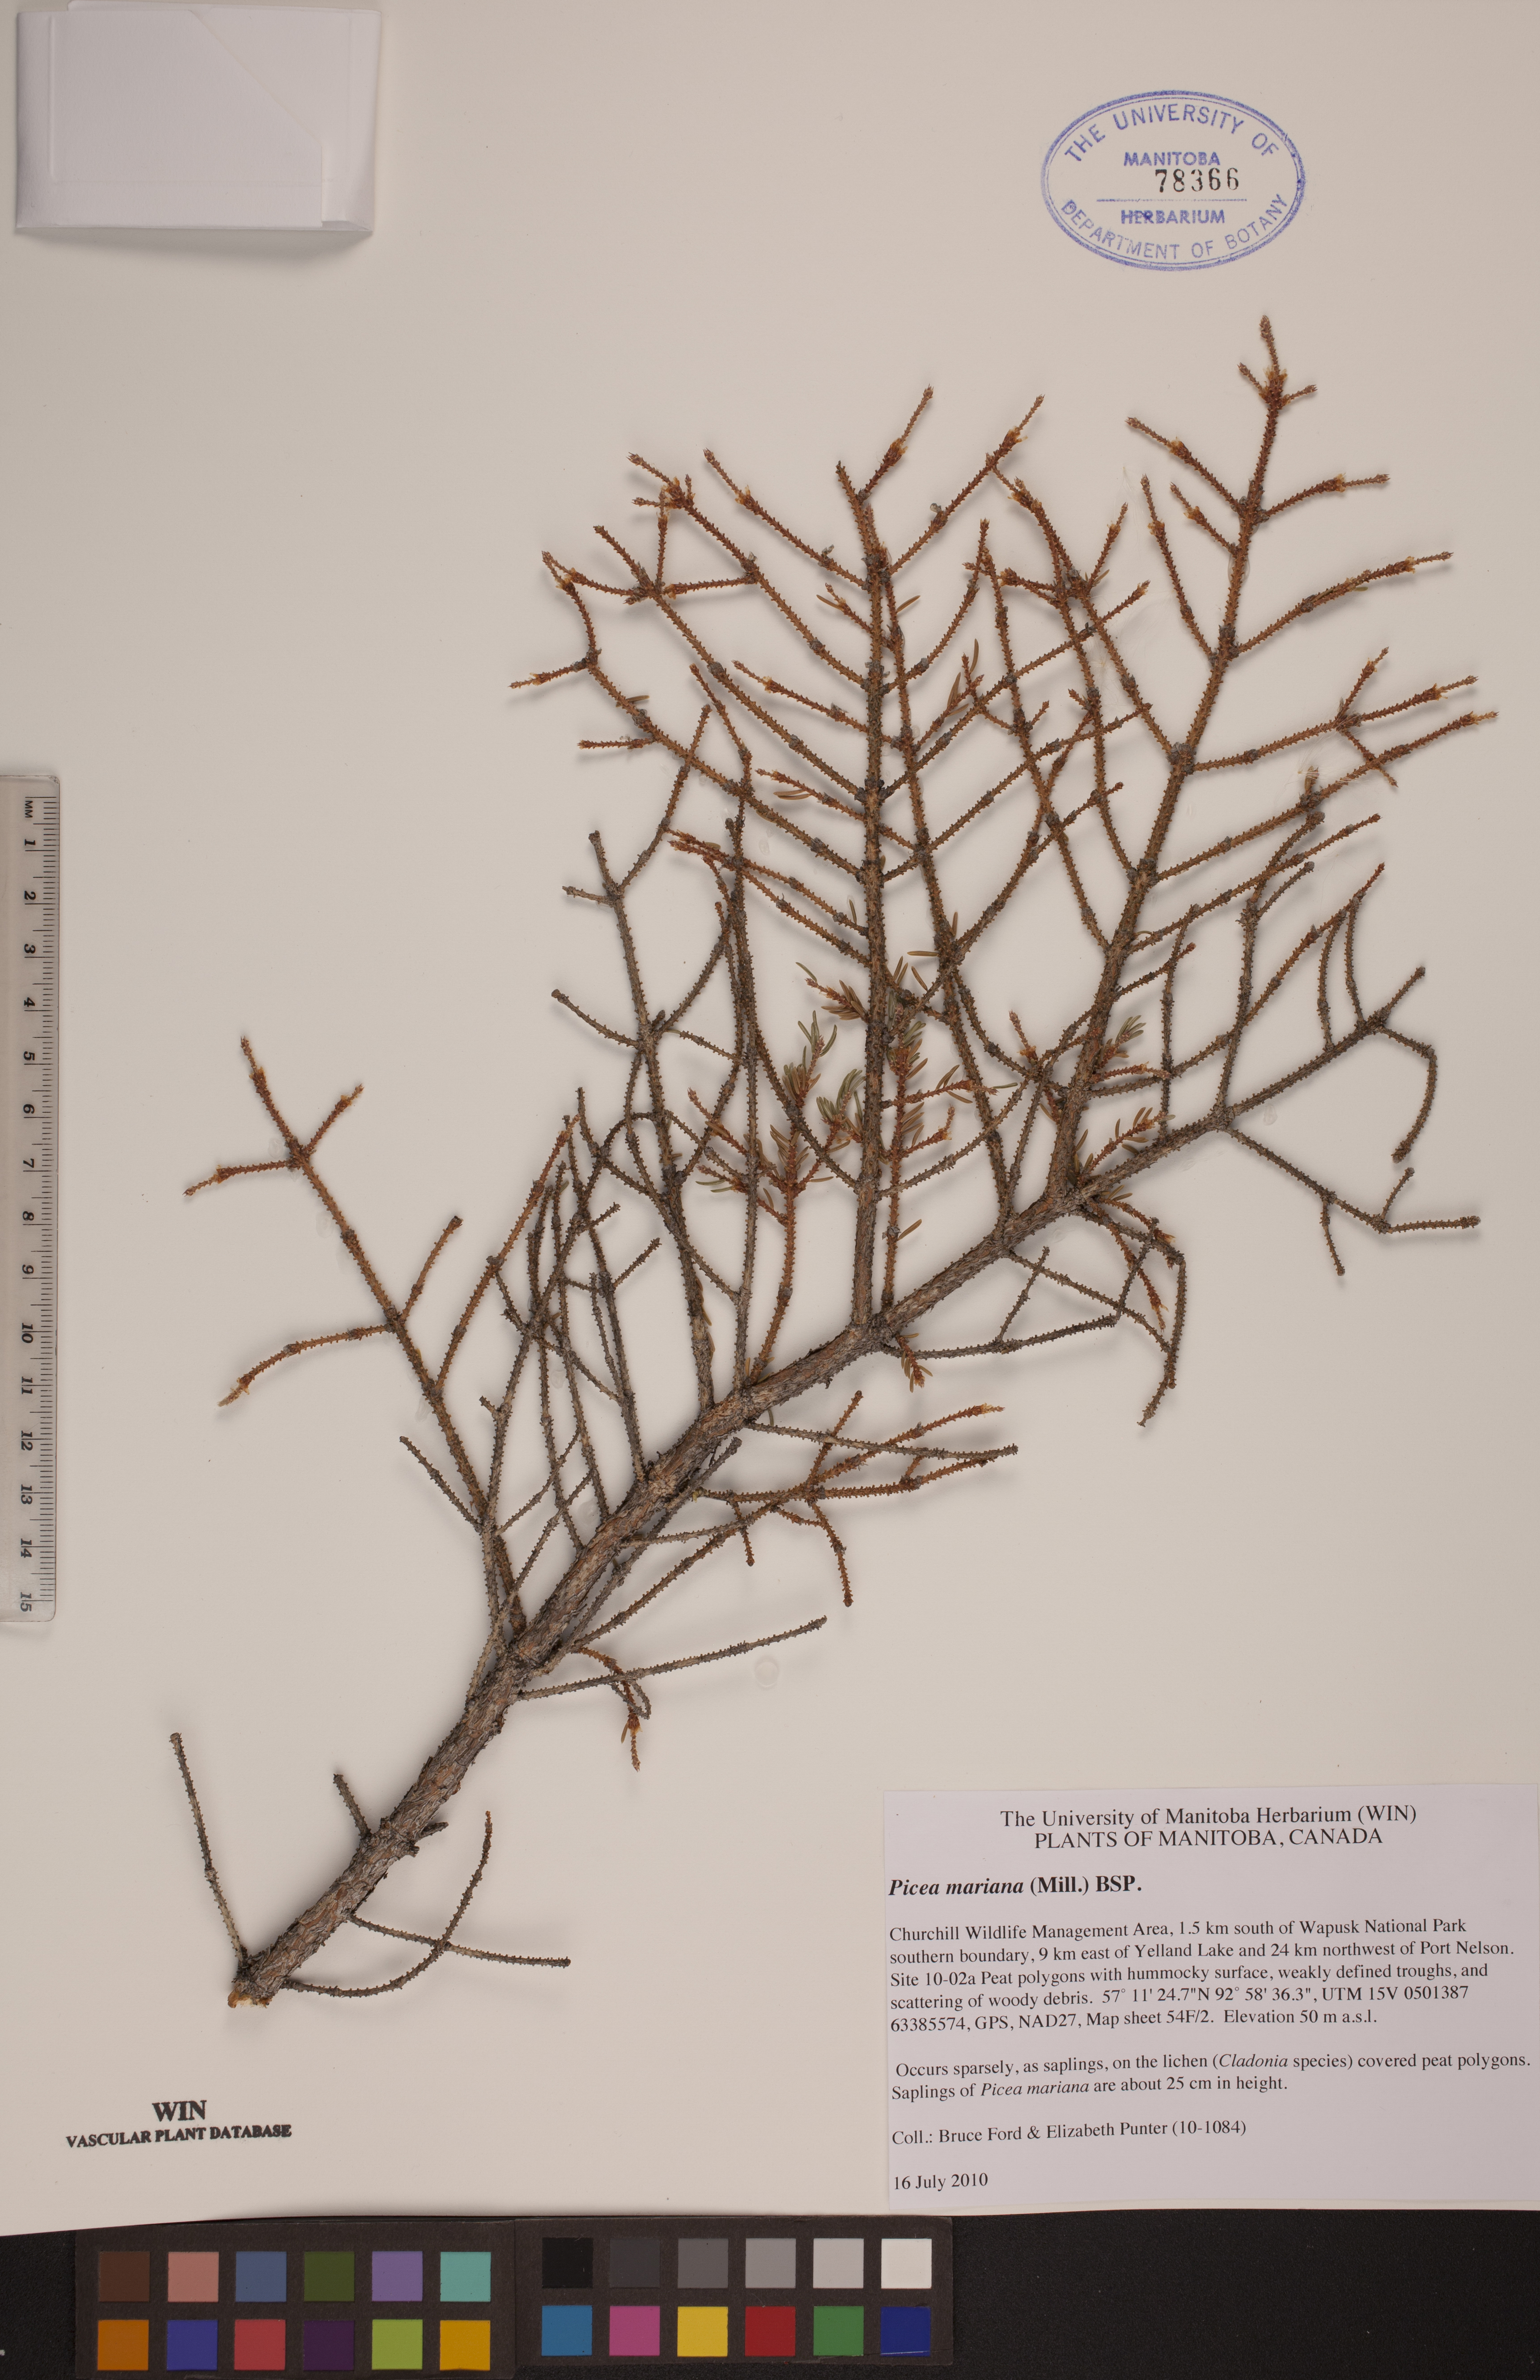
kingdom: Plantae
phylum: Tracheophyta
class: Pinopsida
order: Pinales
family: Pinaceae
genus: Picea
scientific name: Picea mariana
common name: Black spruce
